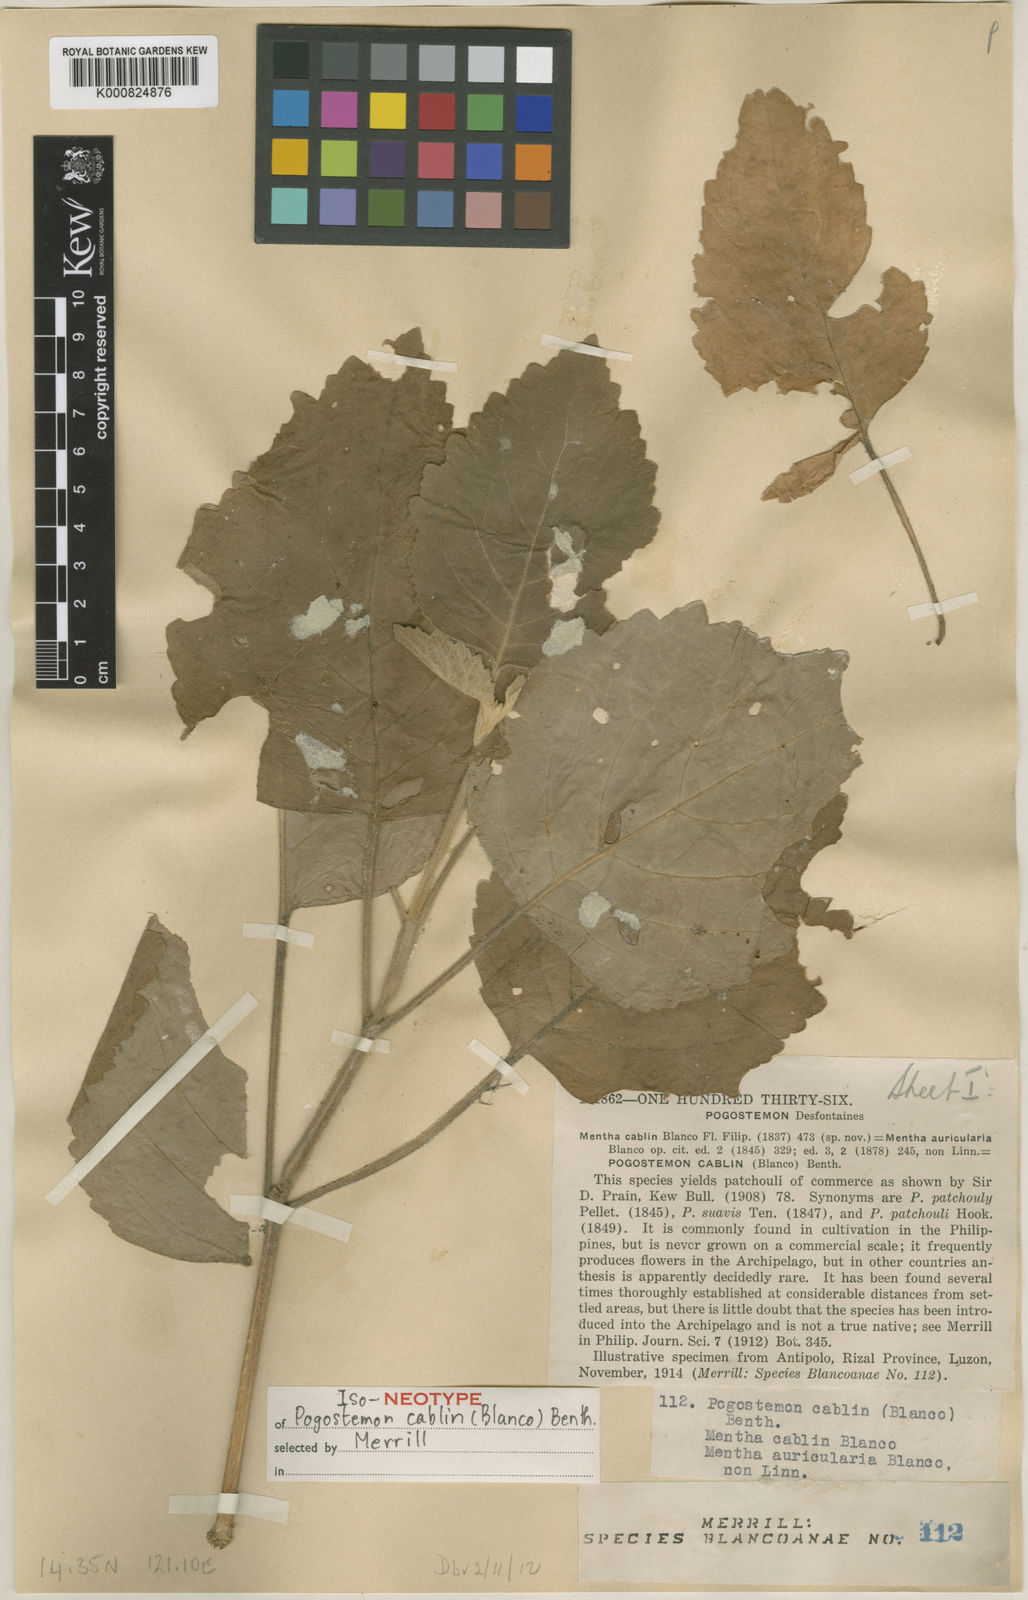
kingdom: Plantae
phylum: Tracheophyta
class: Magnoliopsida
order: Lamiales
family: Lamiaceae
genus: Pogostemon
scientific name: Pogostemon cablin
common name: Patchouli-plant
